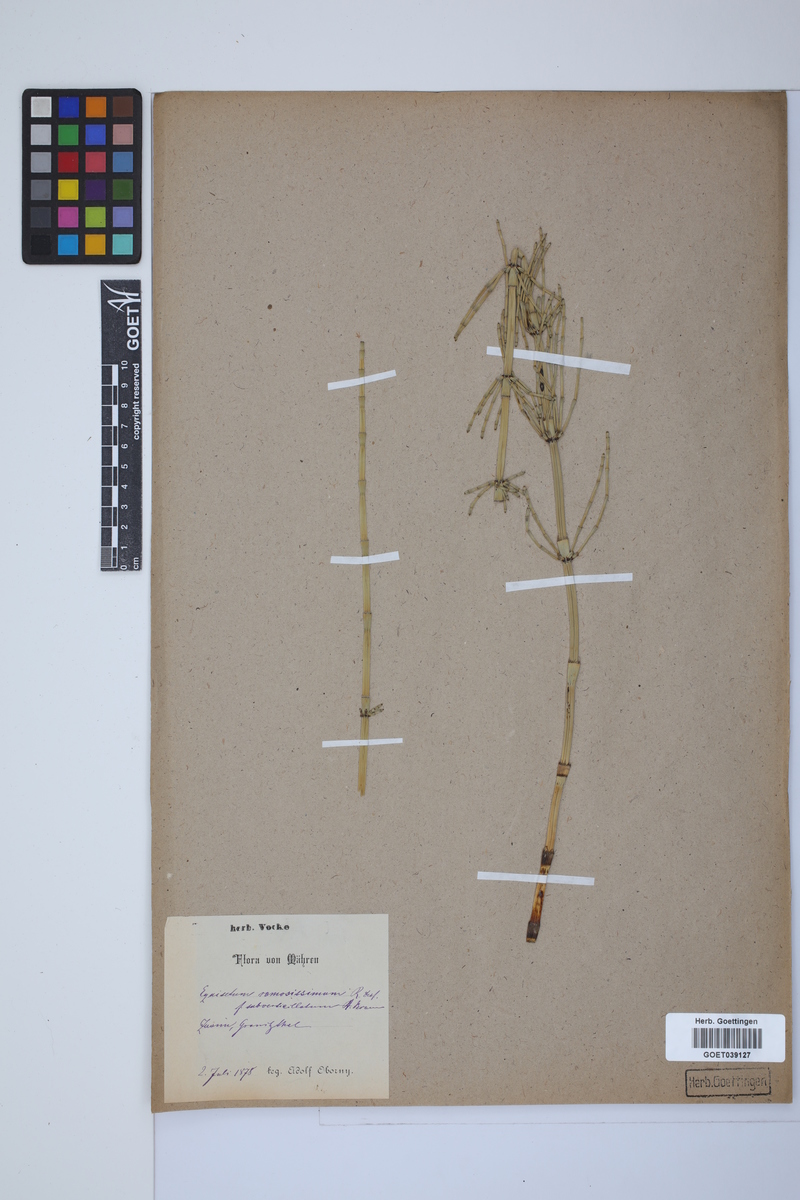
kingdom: Plantae
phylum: Tracheophyta
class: Polypodiopsida
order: Equisetales
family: Equisetaceae
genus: Equisetum
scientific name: Equisetum giganteum
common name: Giant horsetail
